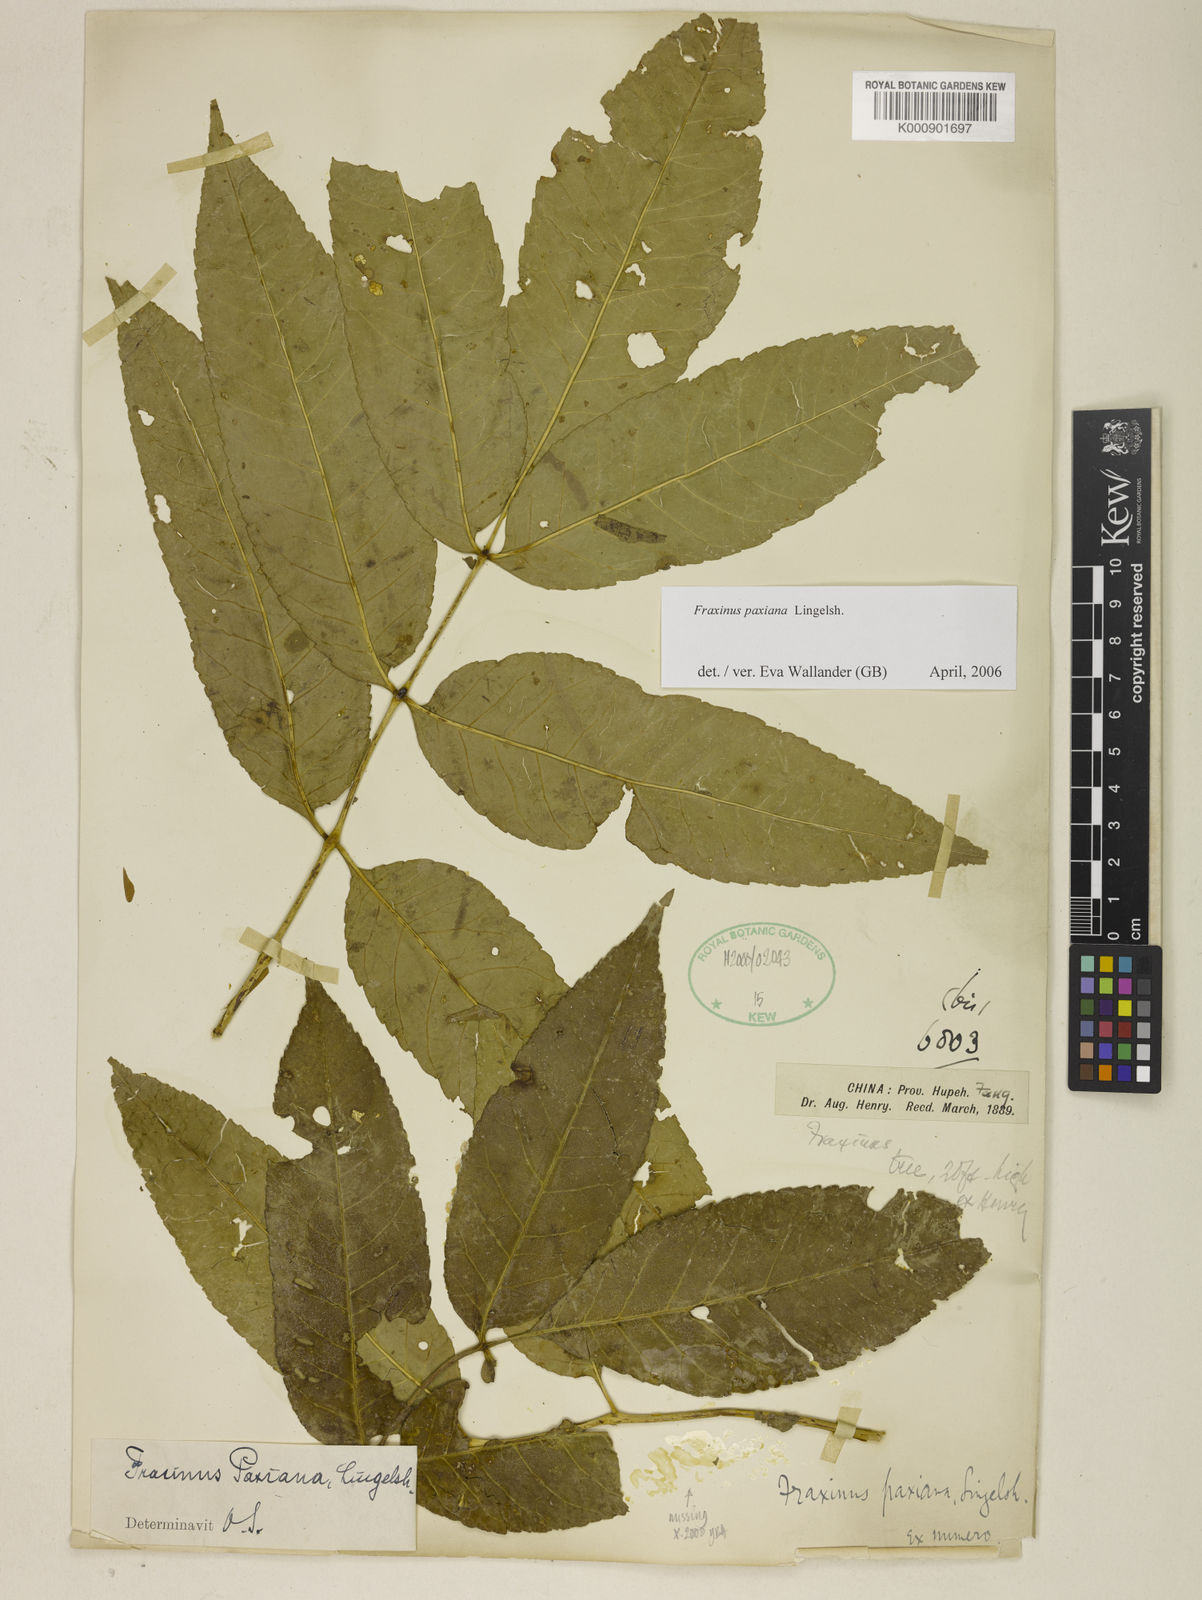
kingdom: Plantae
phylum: Tracheophyta
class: Magnoliopsida
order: Lamiales
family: Oleaceae
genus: Fraxinus
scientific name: Fraxinus paxiana
